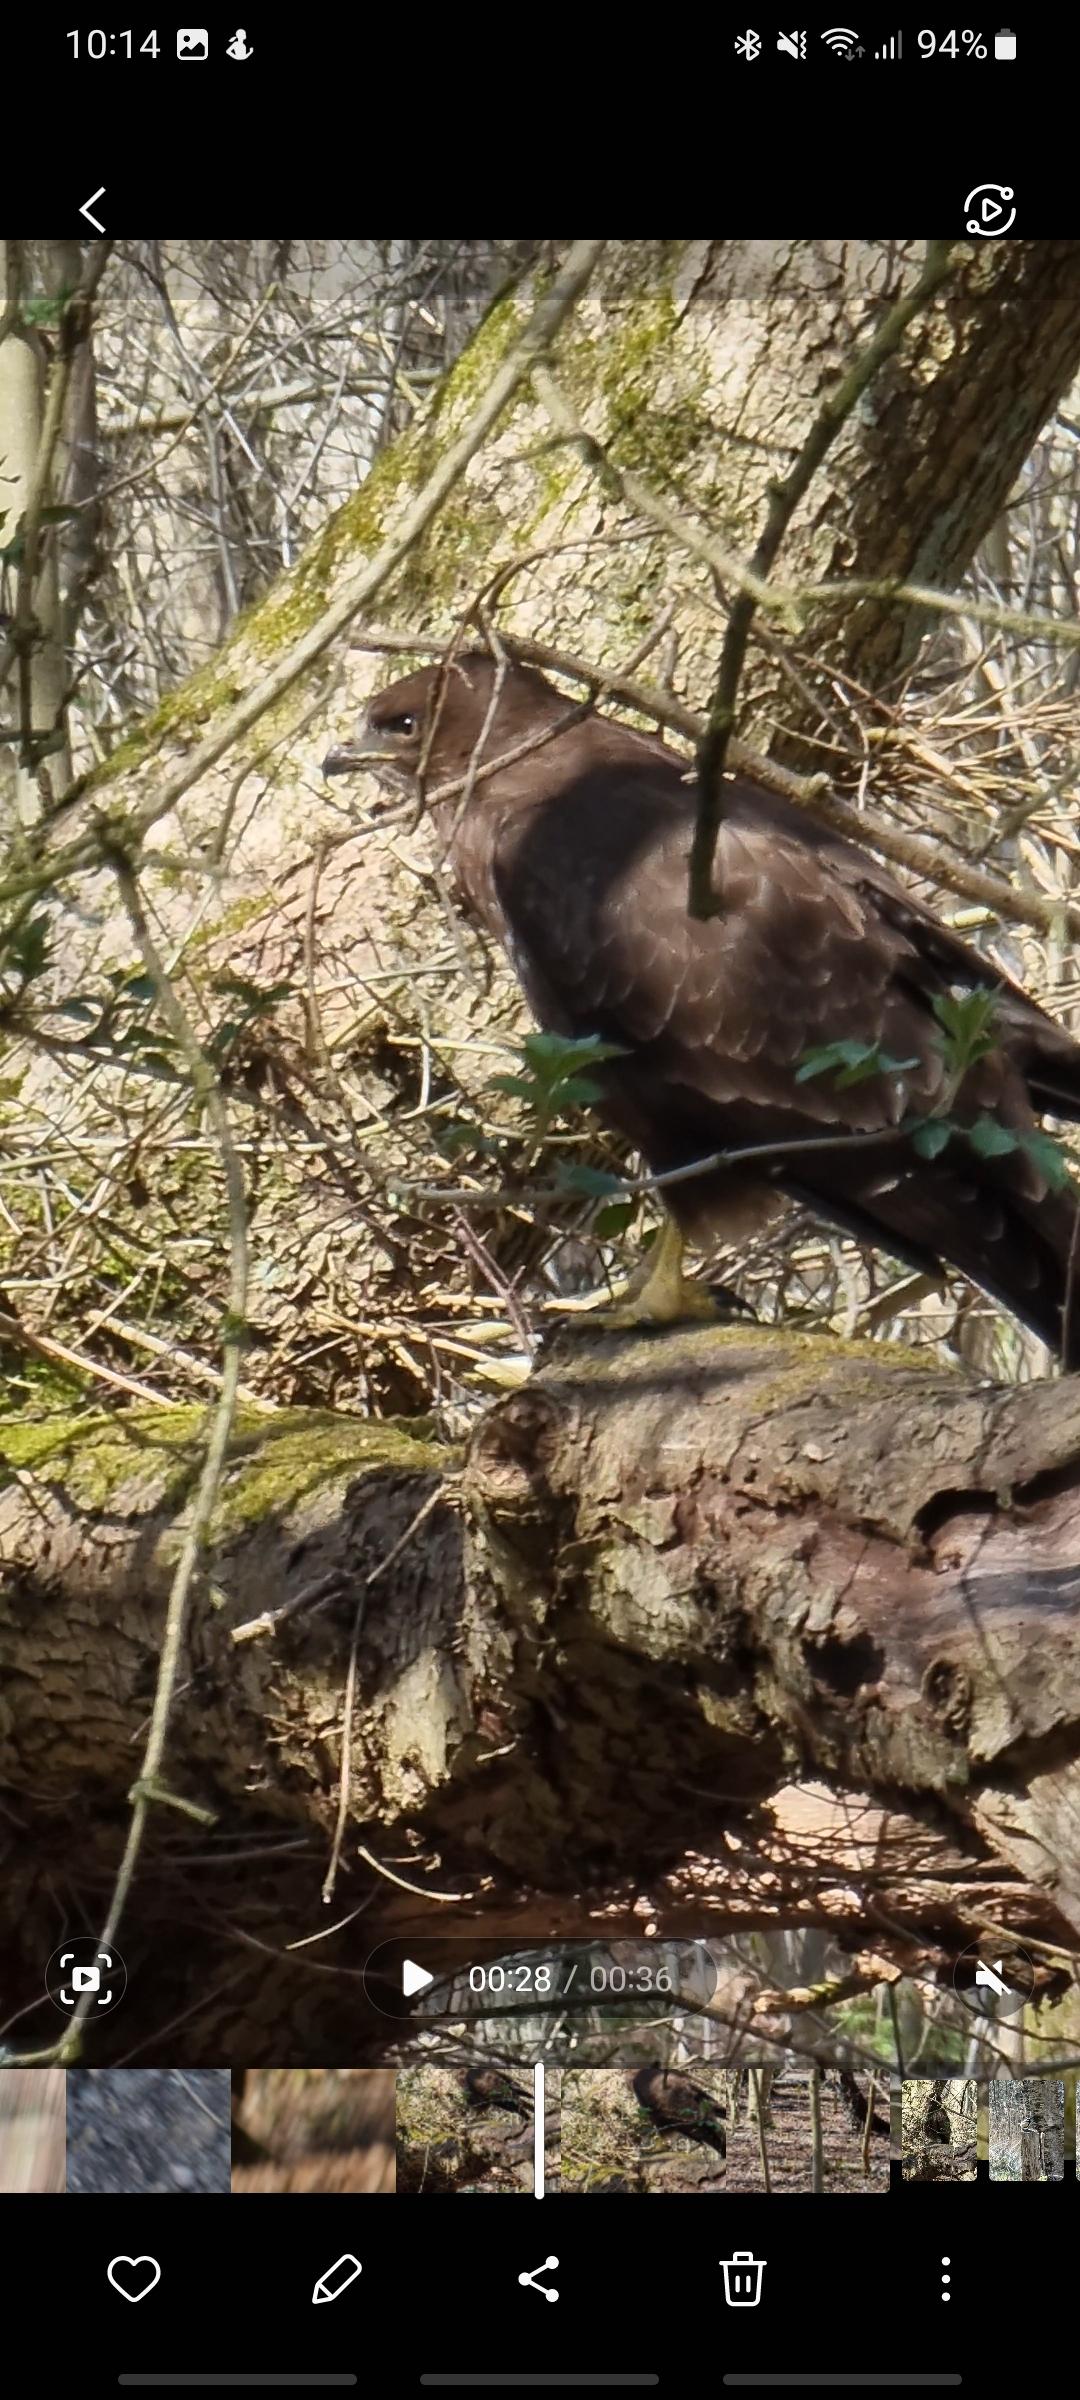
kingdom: Animalia
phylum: Chordata
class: Aves
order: Accipitriformes
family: Accipitridae
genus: Buteo
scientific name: Buteo buteo
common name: Musvåge
